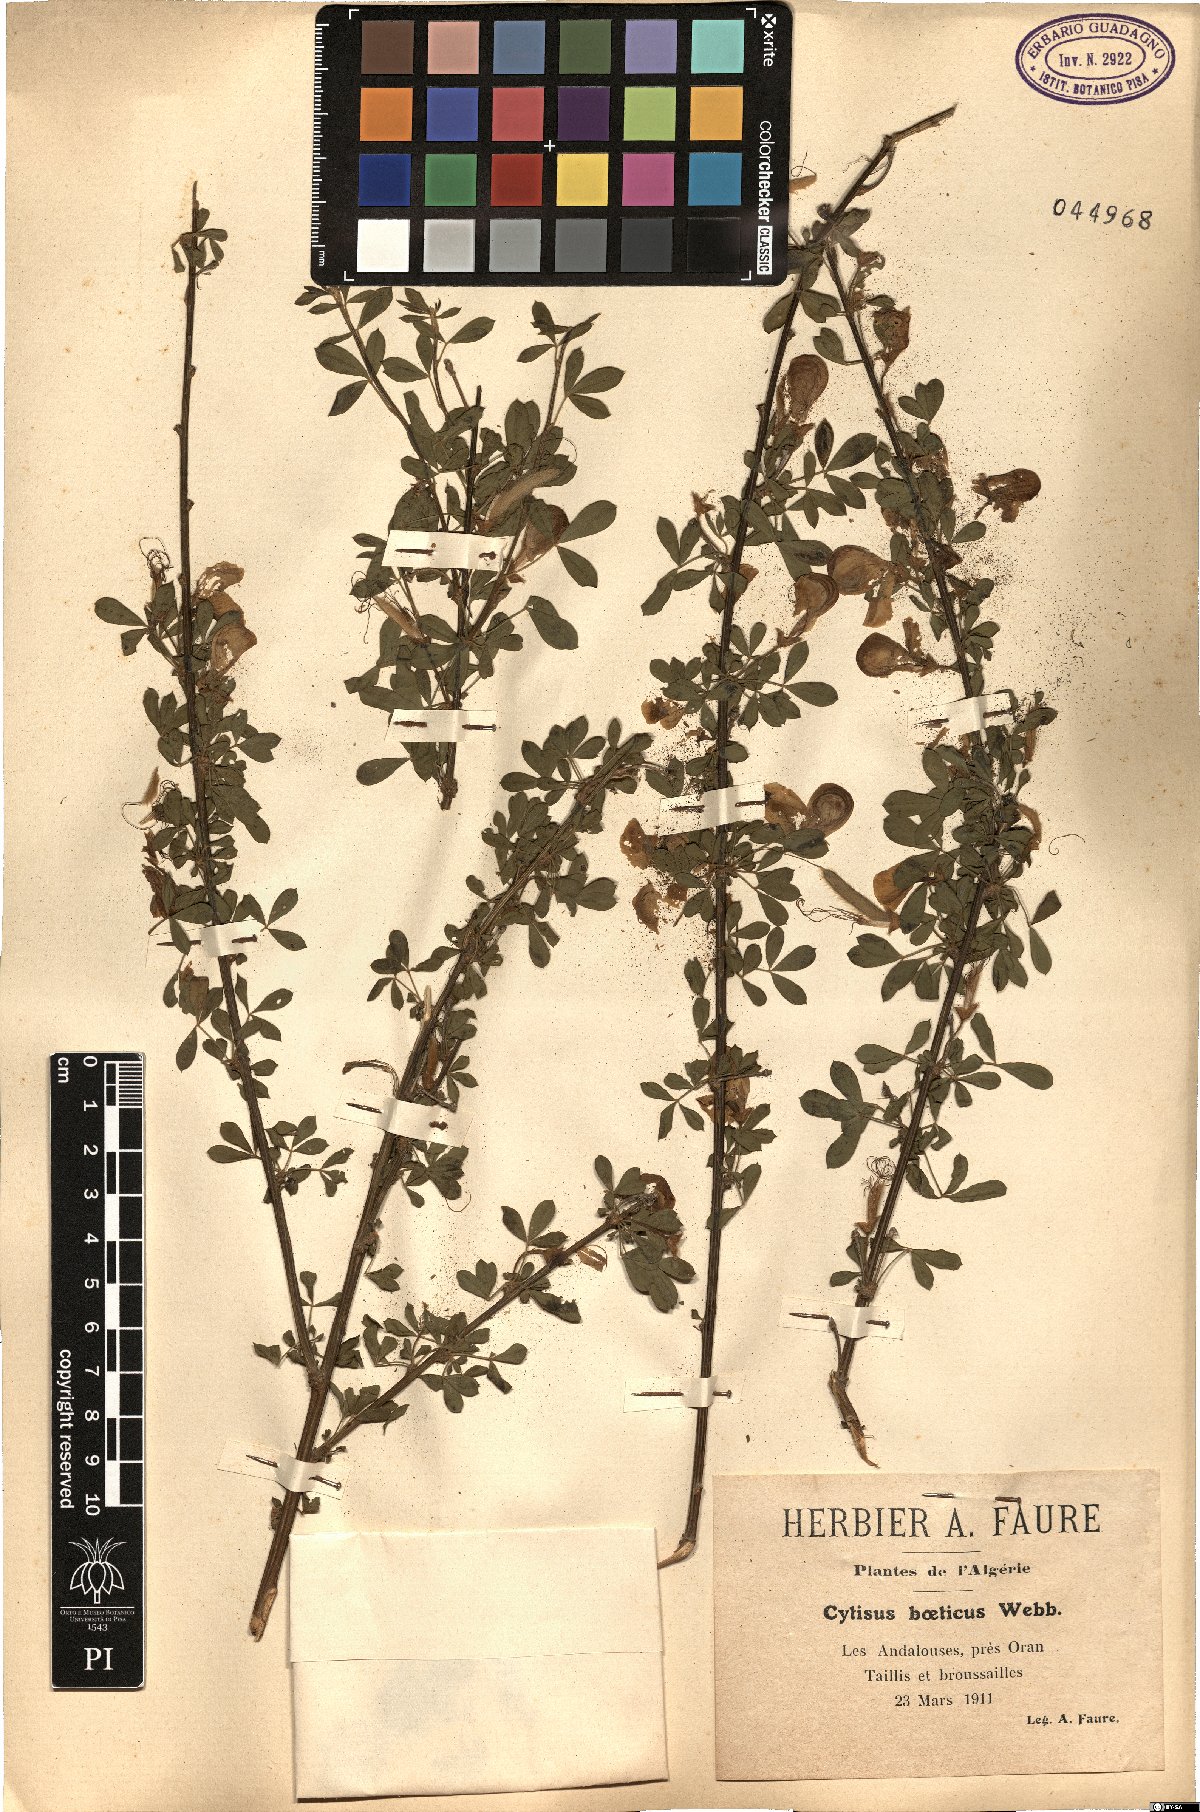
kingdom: Plantae
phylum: Tracheophyta
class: Magnoliopsida
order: Fabales
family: Fabaceae
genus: Cytisus
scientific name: Cytisus arboreus
